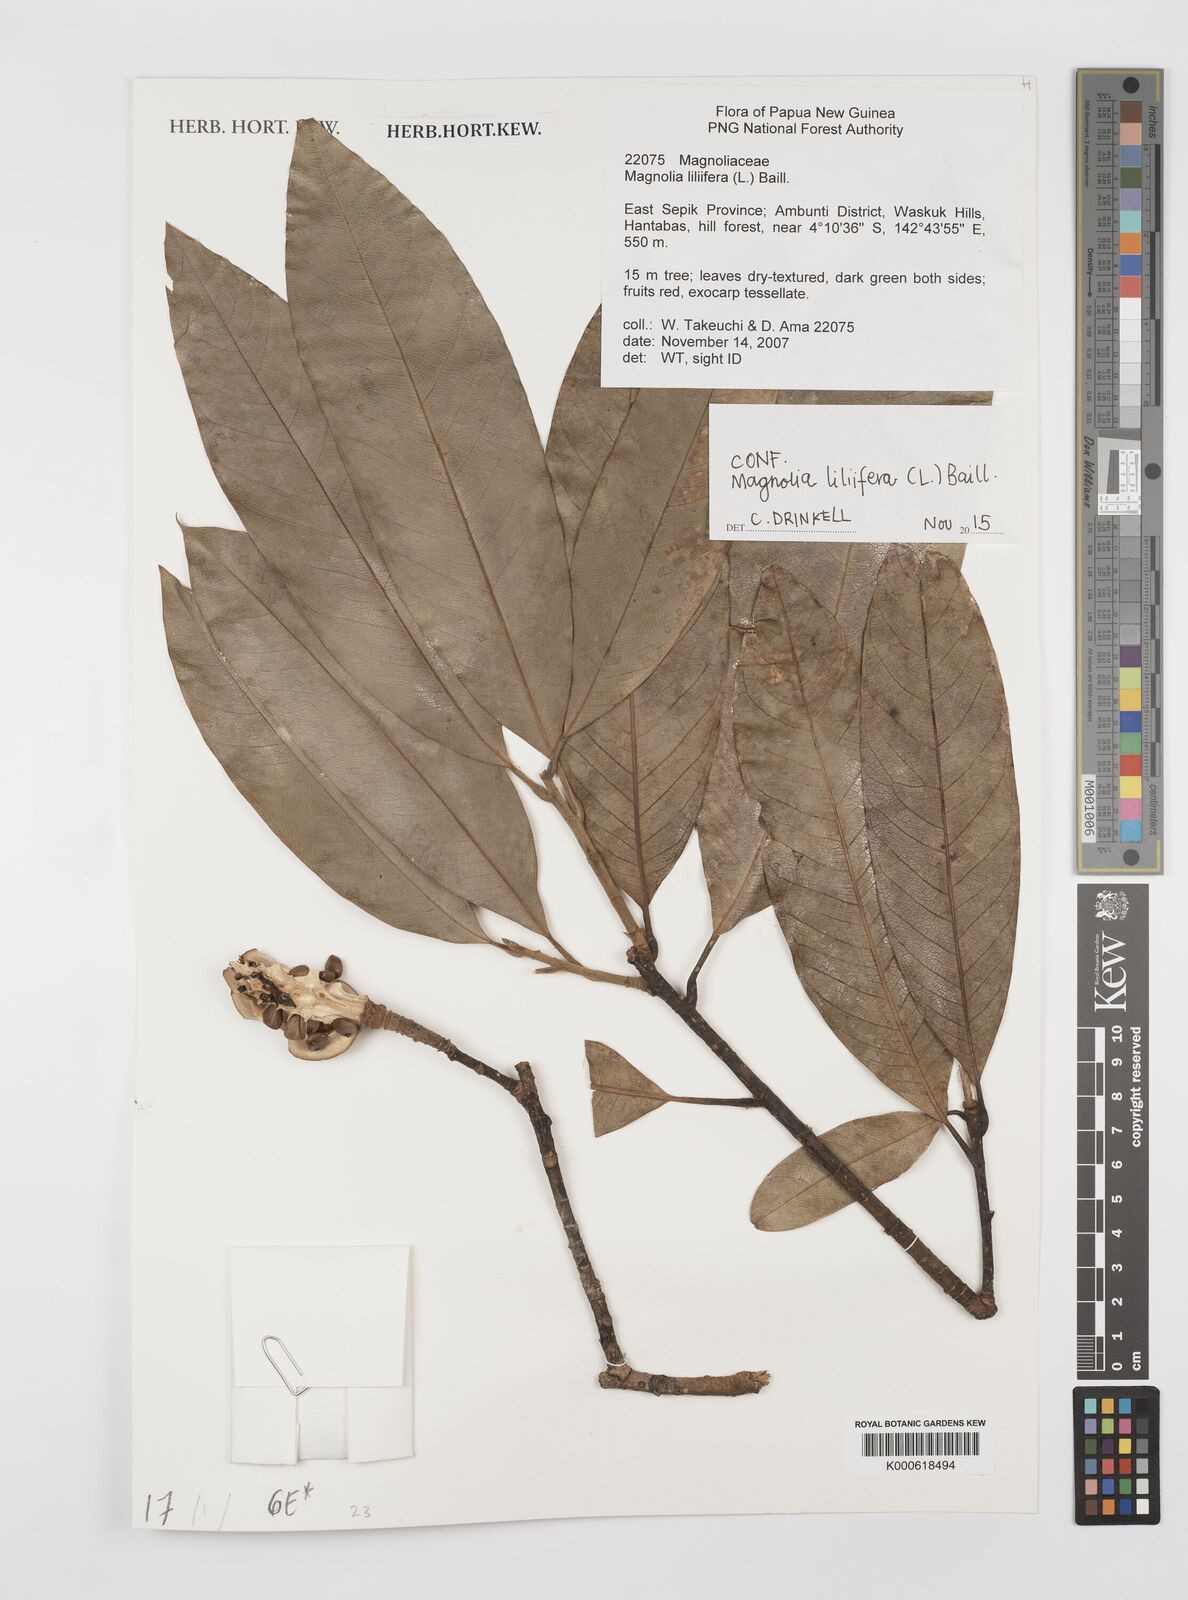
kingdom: Plantae
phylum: Tracheophyta
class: Magnoliopsida
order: Magnoliales
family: Magnoliaceae
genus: Magnolia
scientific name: Magnolia liliifera
